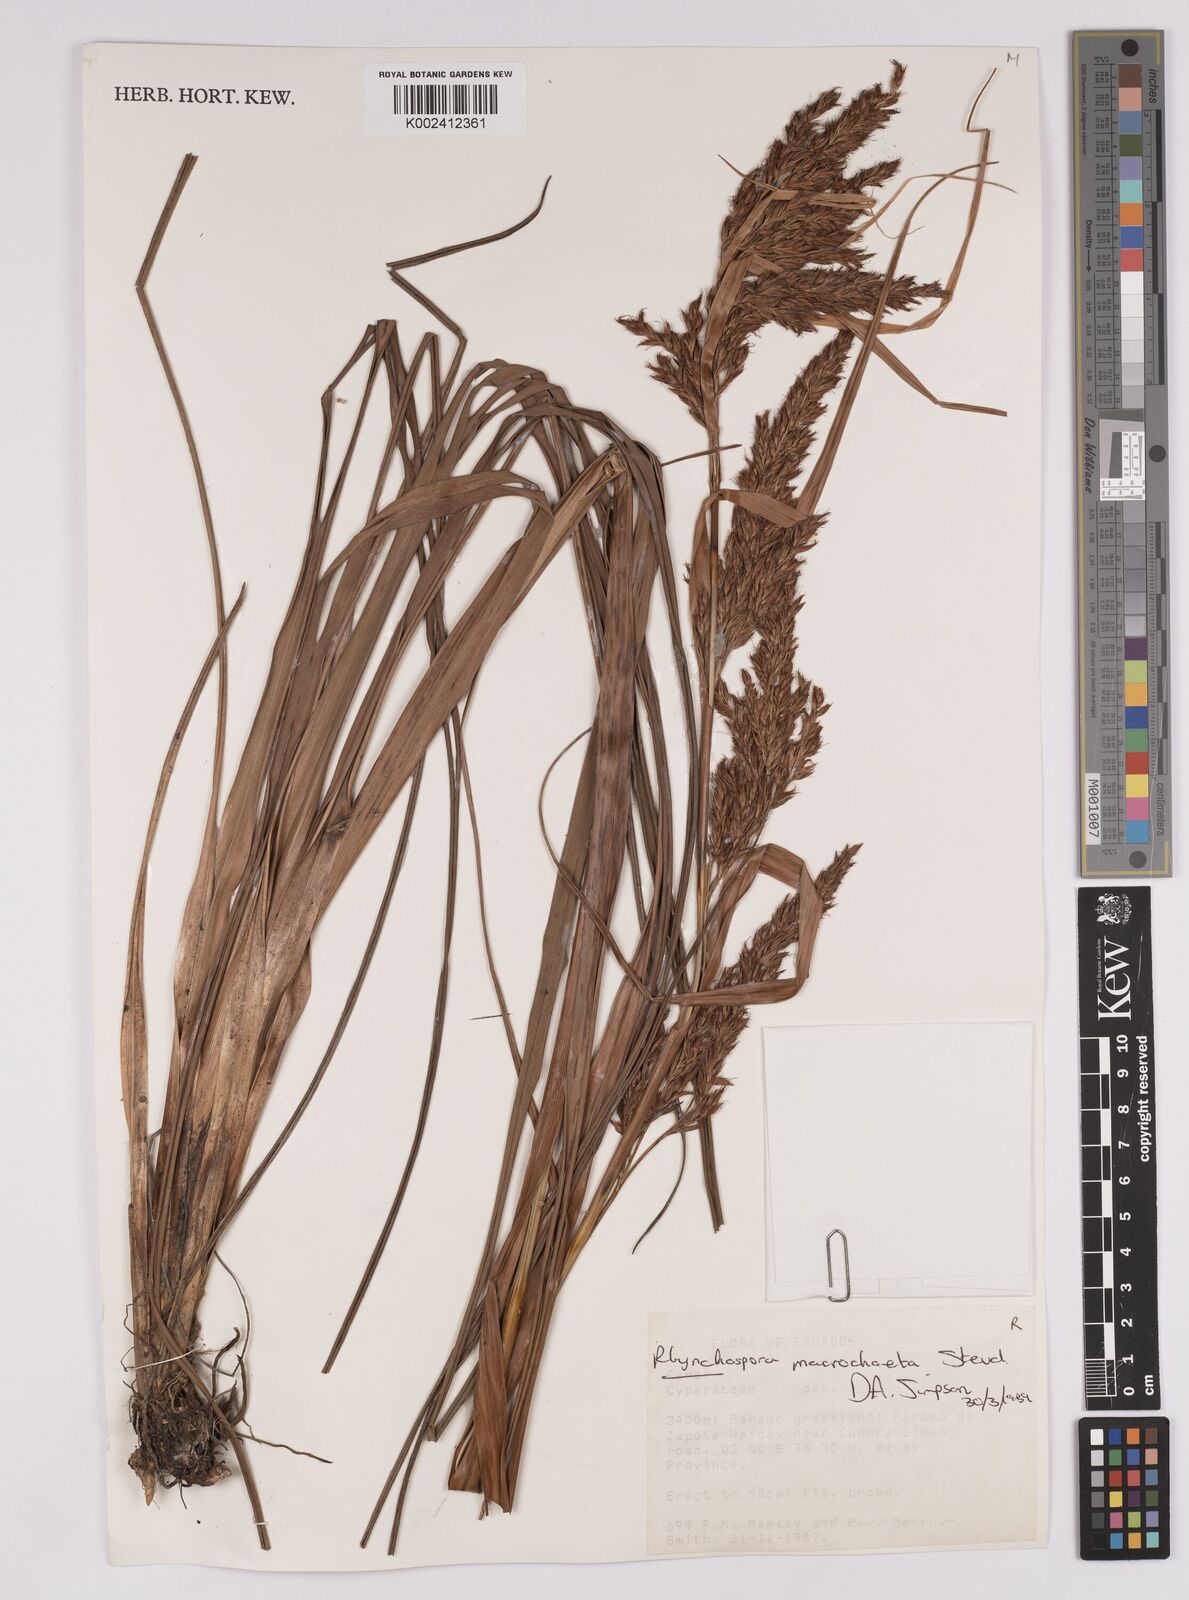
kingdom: Plantae
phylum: Tracheophyta
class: Liliopsida
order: Poales
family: Cyperaceae
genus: Rhynchospora
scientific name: Rhynchospora macrochaeta
